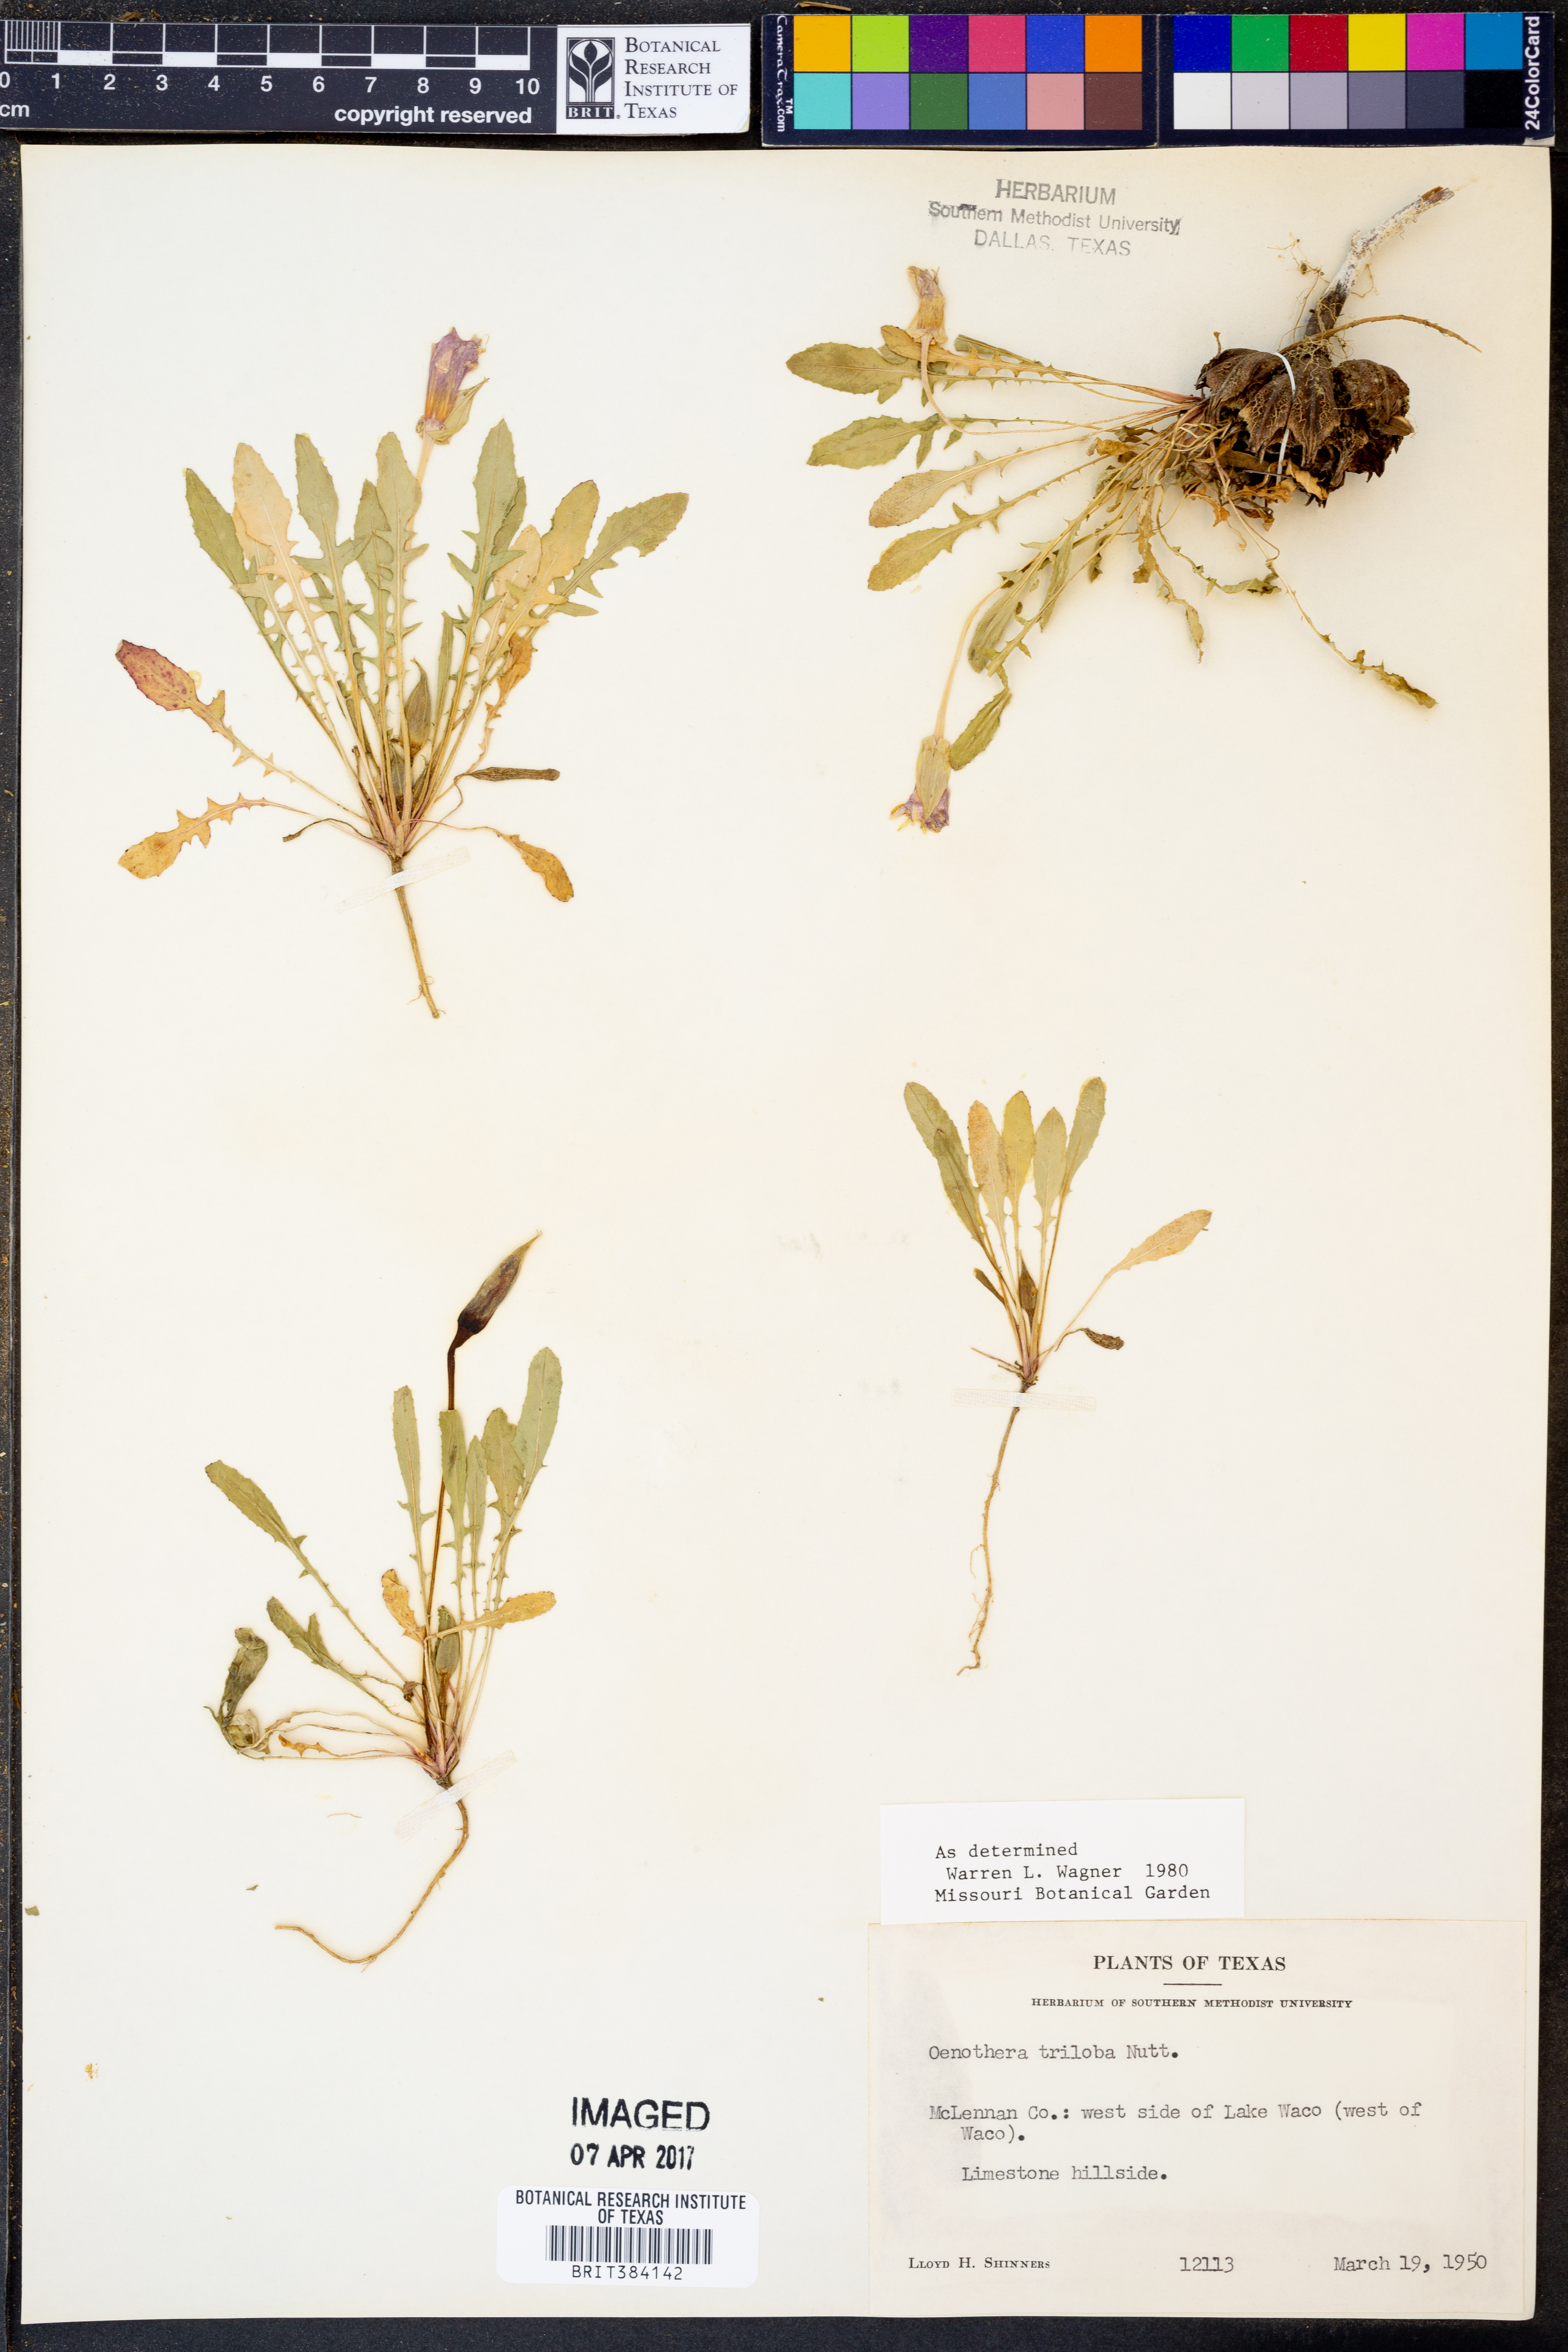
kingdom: Plantae
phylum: Tracheophyta
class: Magnoliopsida
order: Myrtales
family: Onagraceae
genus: Oenothera
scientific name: Oenothera triloba
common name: Sessile evening-primrose
